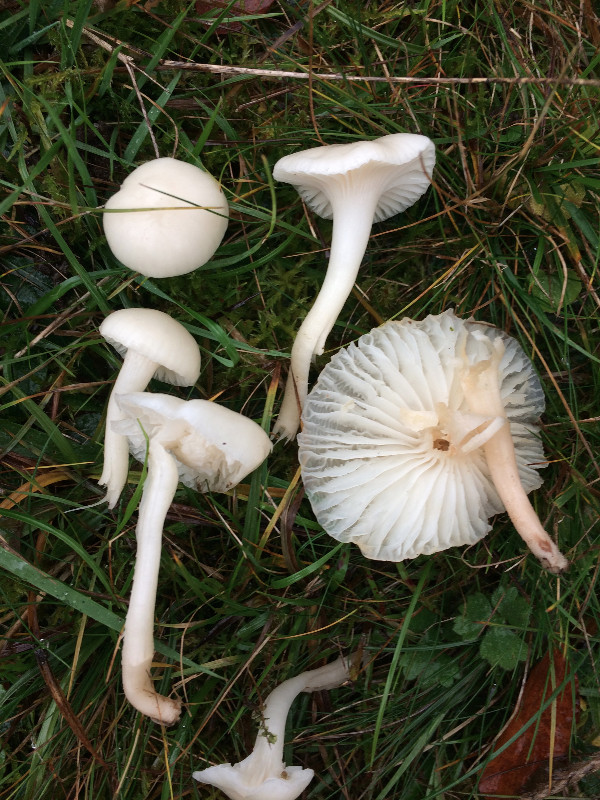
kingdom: Fungi
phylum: Basidiomycota
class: Agaricomycetes
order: Agaricales
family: Hygrophoraceae
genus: Cuphophyllus
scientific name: Cuphophyllus virgineus
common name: snehvid vokshat
